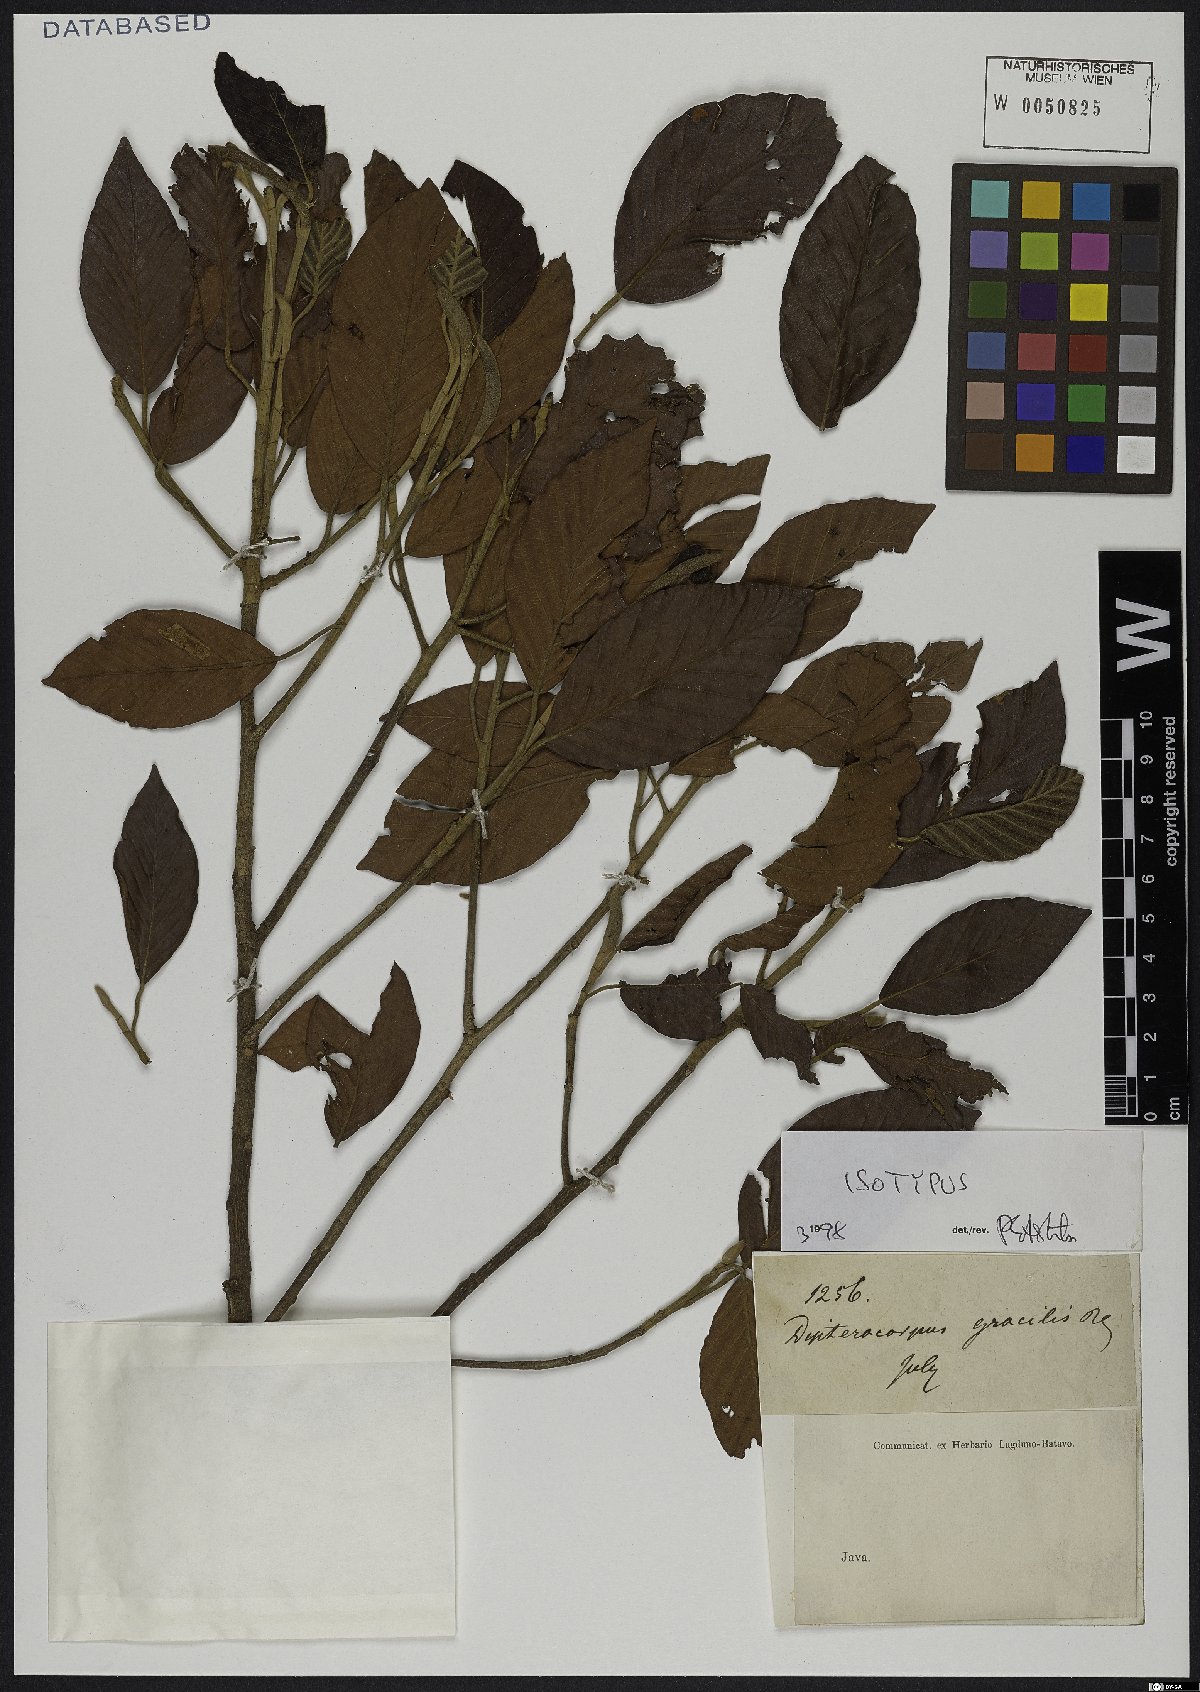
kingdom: Plantae
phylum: Tracheophyta
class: Magnoliopsida
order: Malvales
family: Dipterocarpaceae
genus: Dipterocarpus
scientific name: Dipterocarpus gracilis
